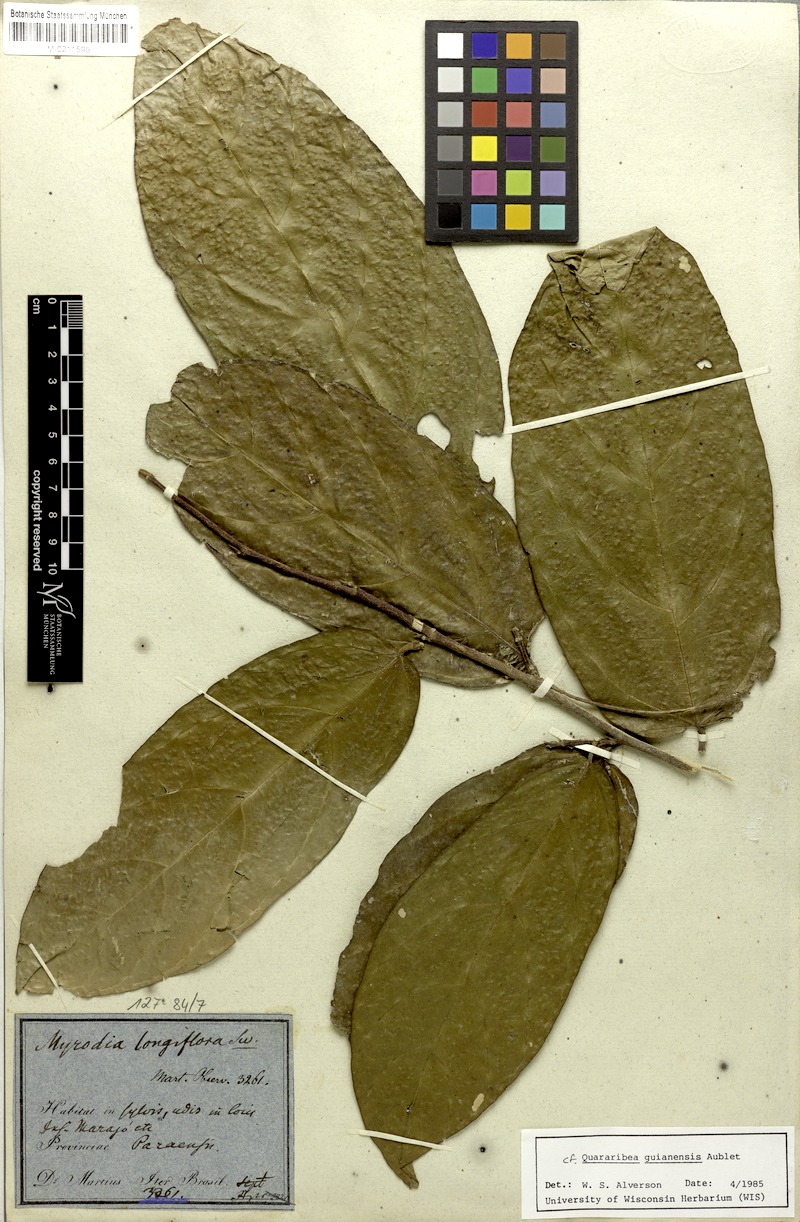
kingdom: Plantae
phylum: Tracheophyta
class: Magnoliopsida
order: Malvales
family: Malvaceae
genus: Quararibea
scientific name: Quararibea guianensis
